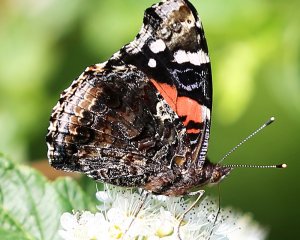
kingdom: Animalia
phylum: Arthropoda
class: Insecta
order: Lepidoptera
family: Nymphalidae
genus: Vanessa
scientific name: Vanessa atalanta
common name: Red Admiral
